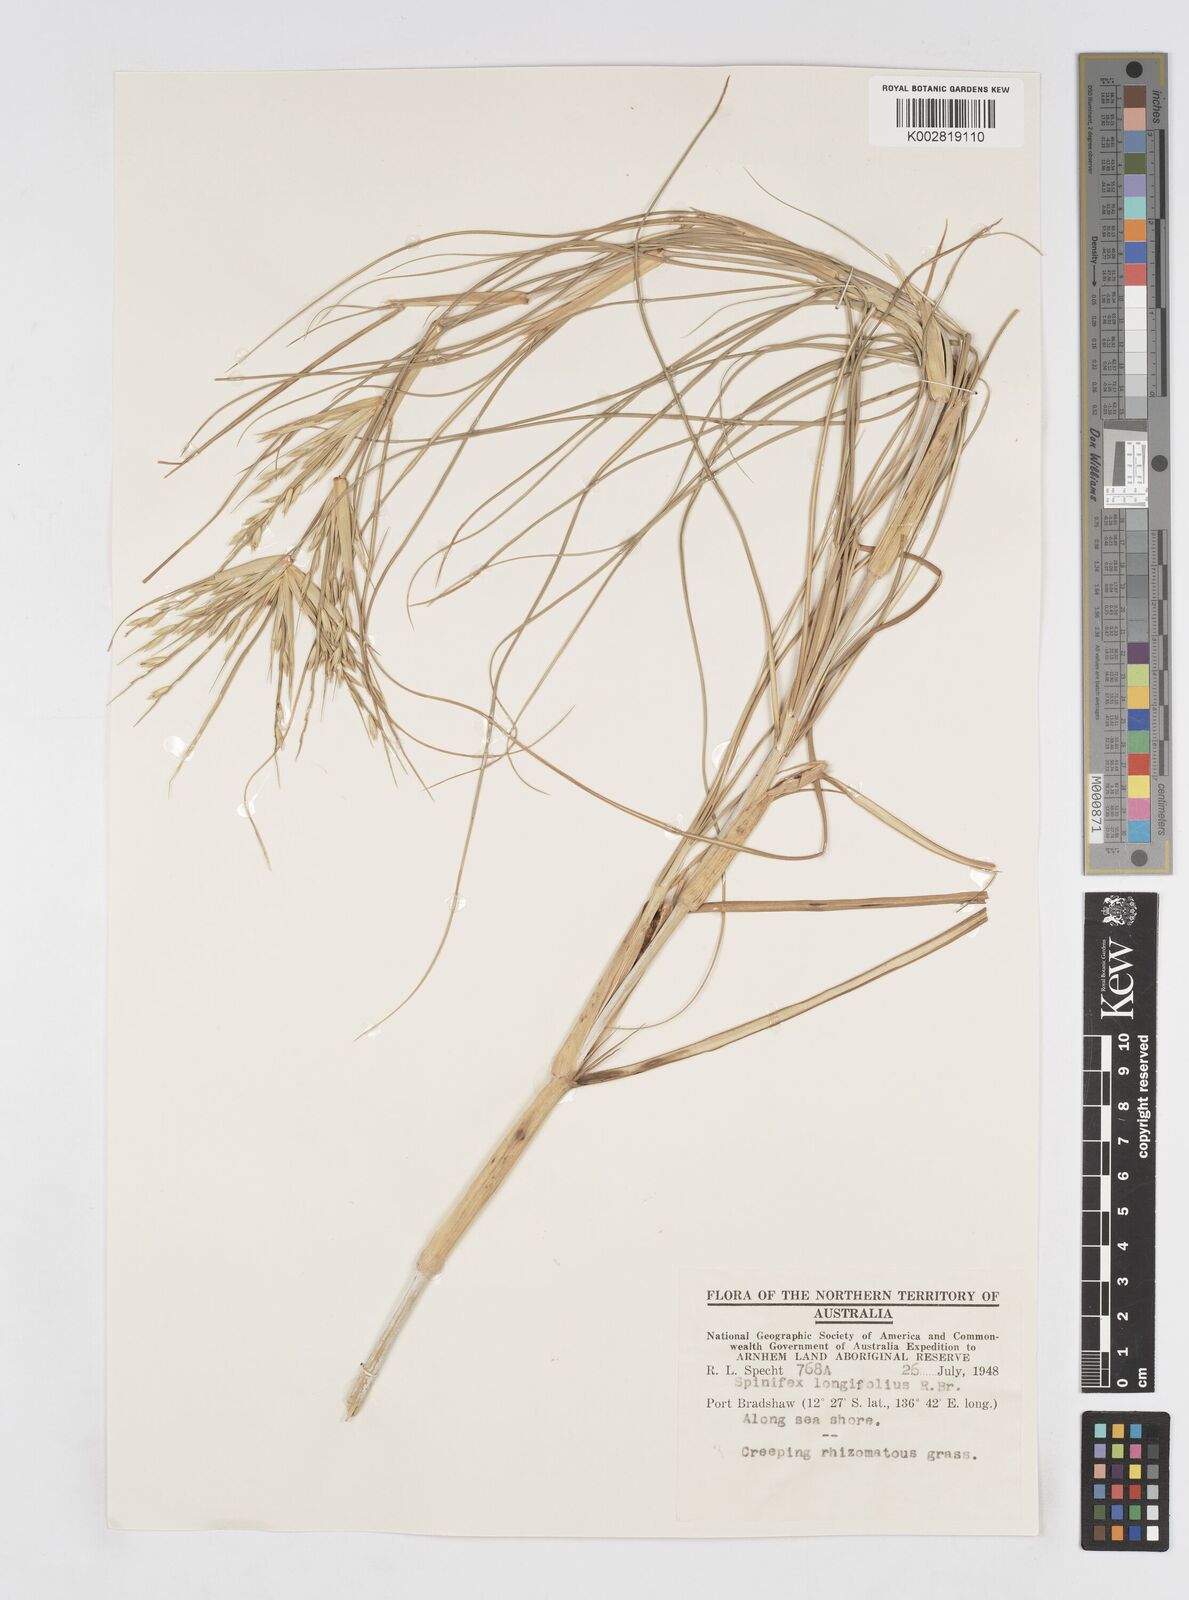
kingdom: Plantae
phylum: Tracheophyta
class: Liliopsida
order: Poales
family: Poaceae
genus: Spinifex
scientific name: Spinifex longifolius
